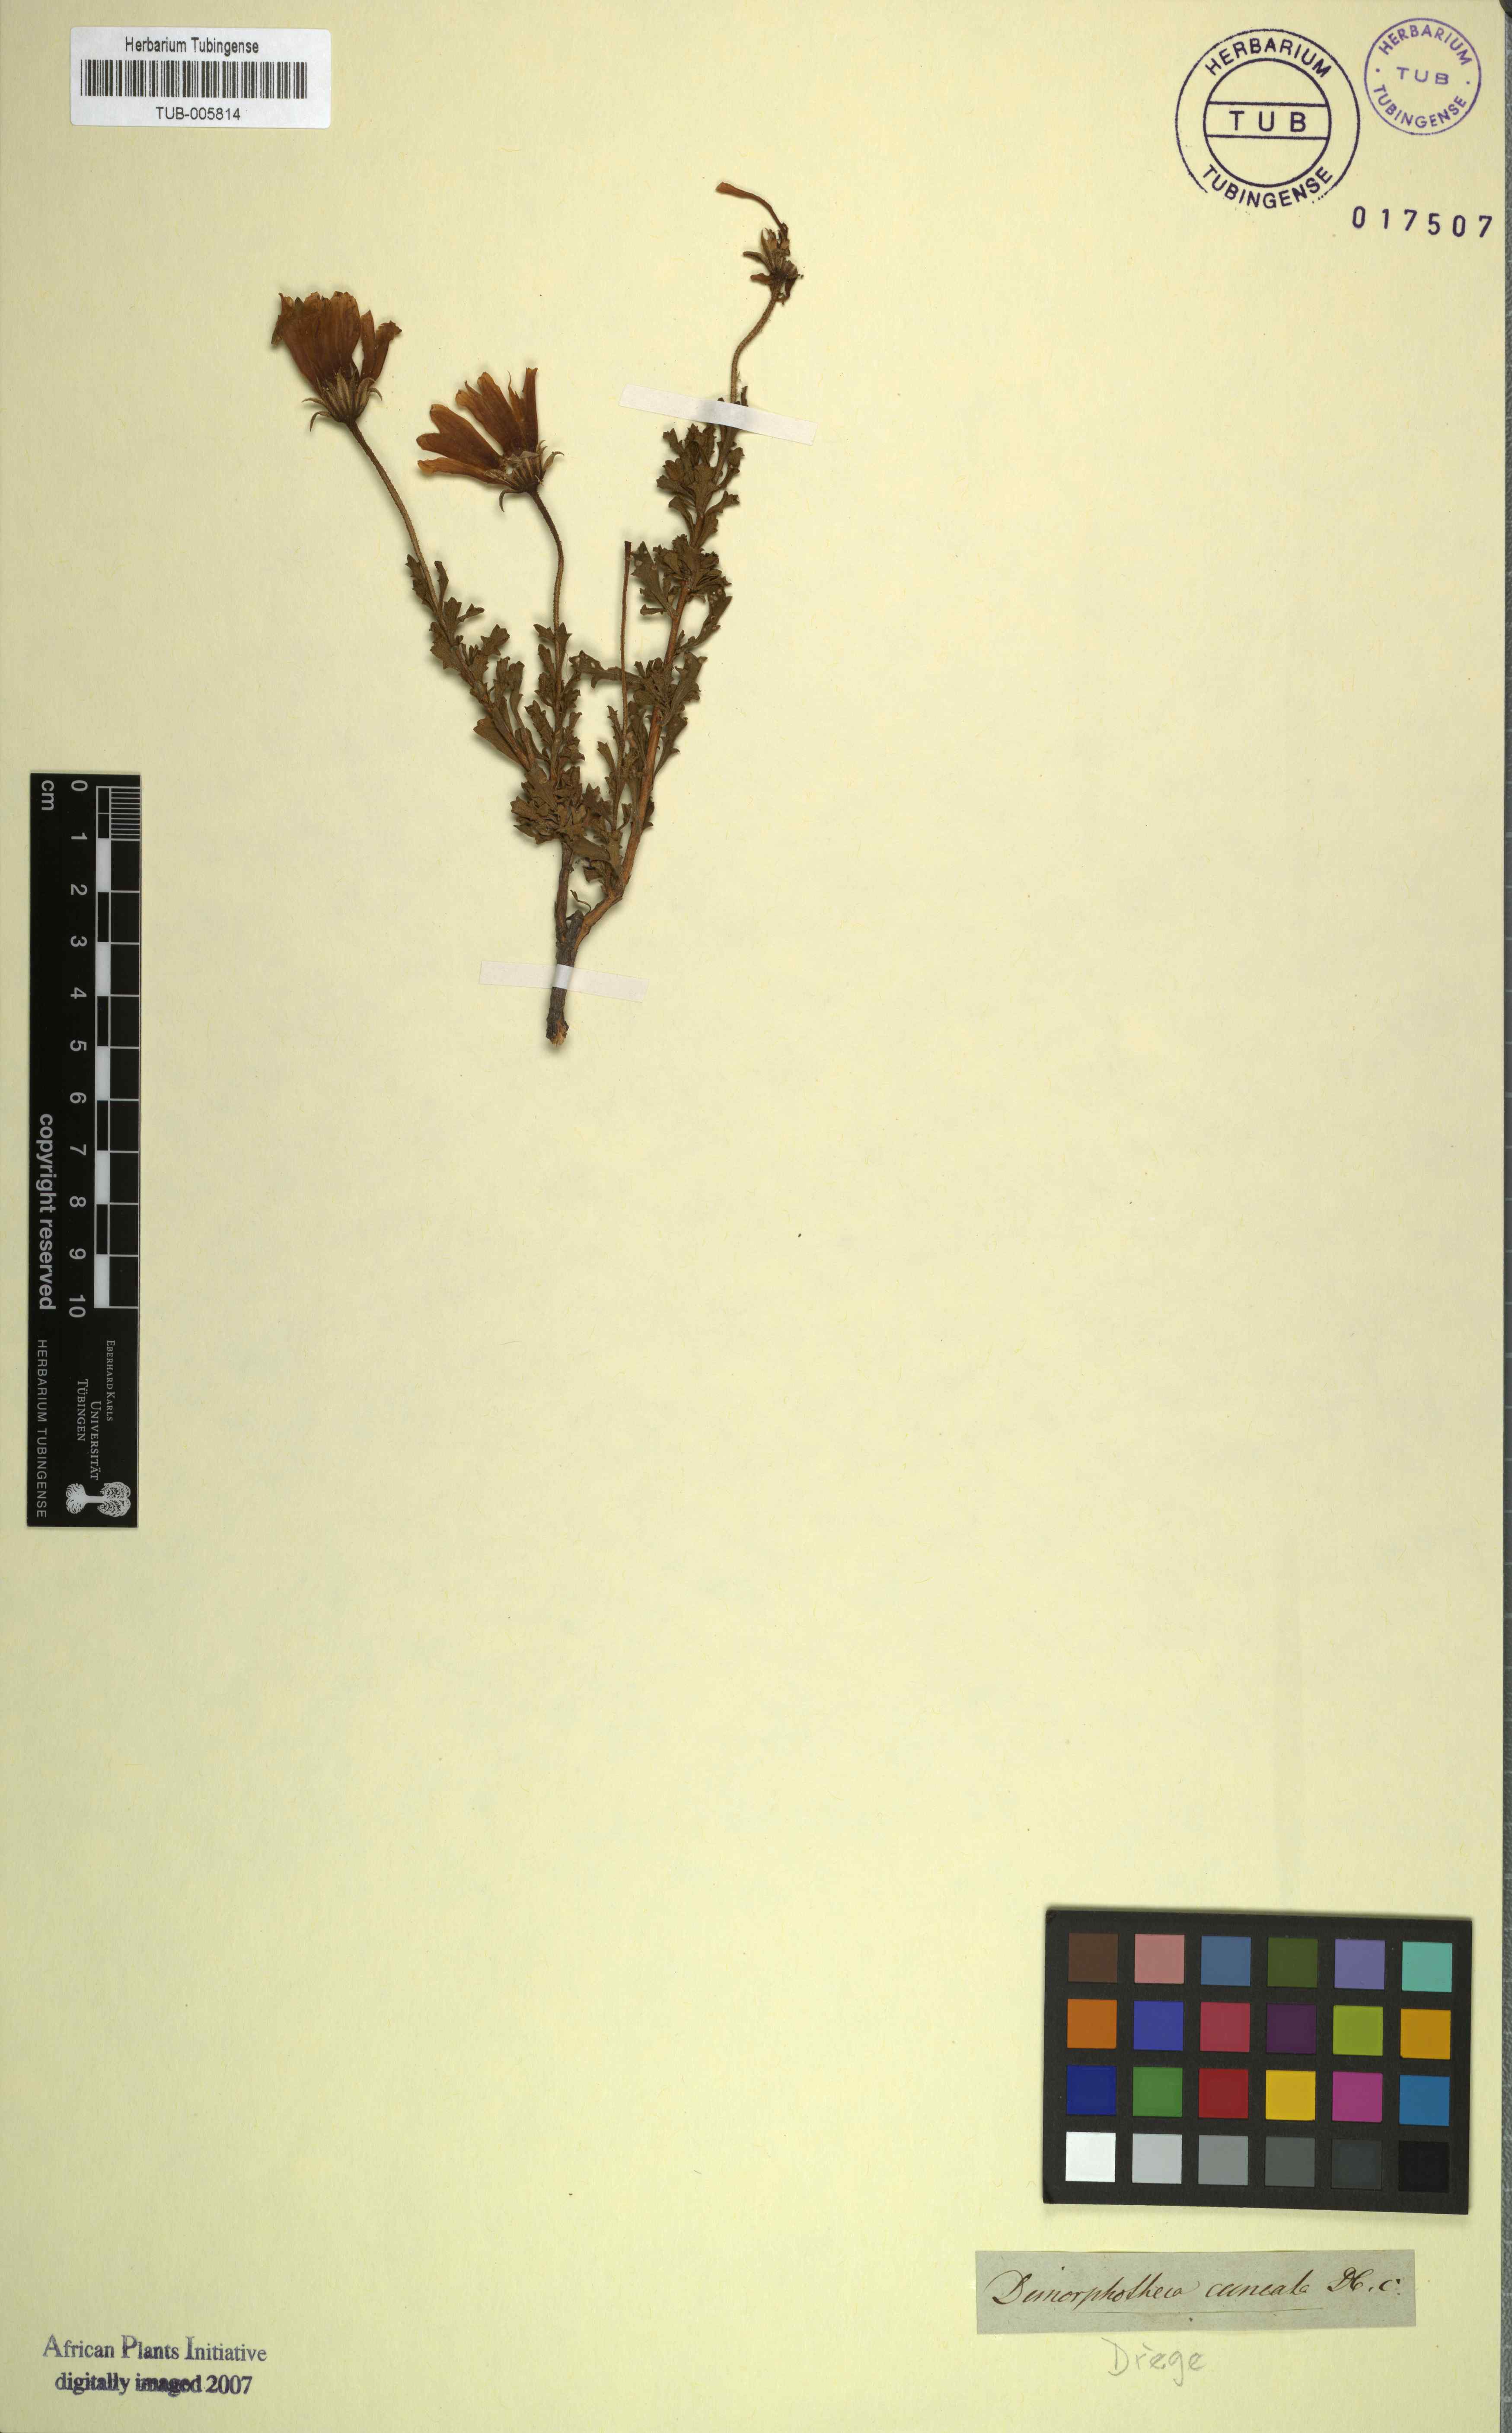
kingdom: Plantae
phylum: Tracheophyta
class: Magnoliopsida
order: Asterales
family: Asteraceae
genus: Dimorphotheca
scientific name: Dimorphotheca cuneata
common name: Daisy
